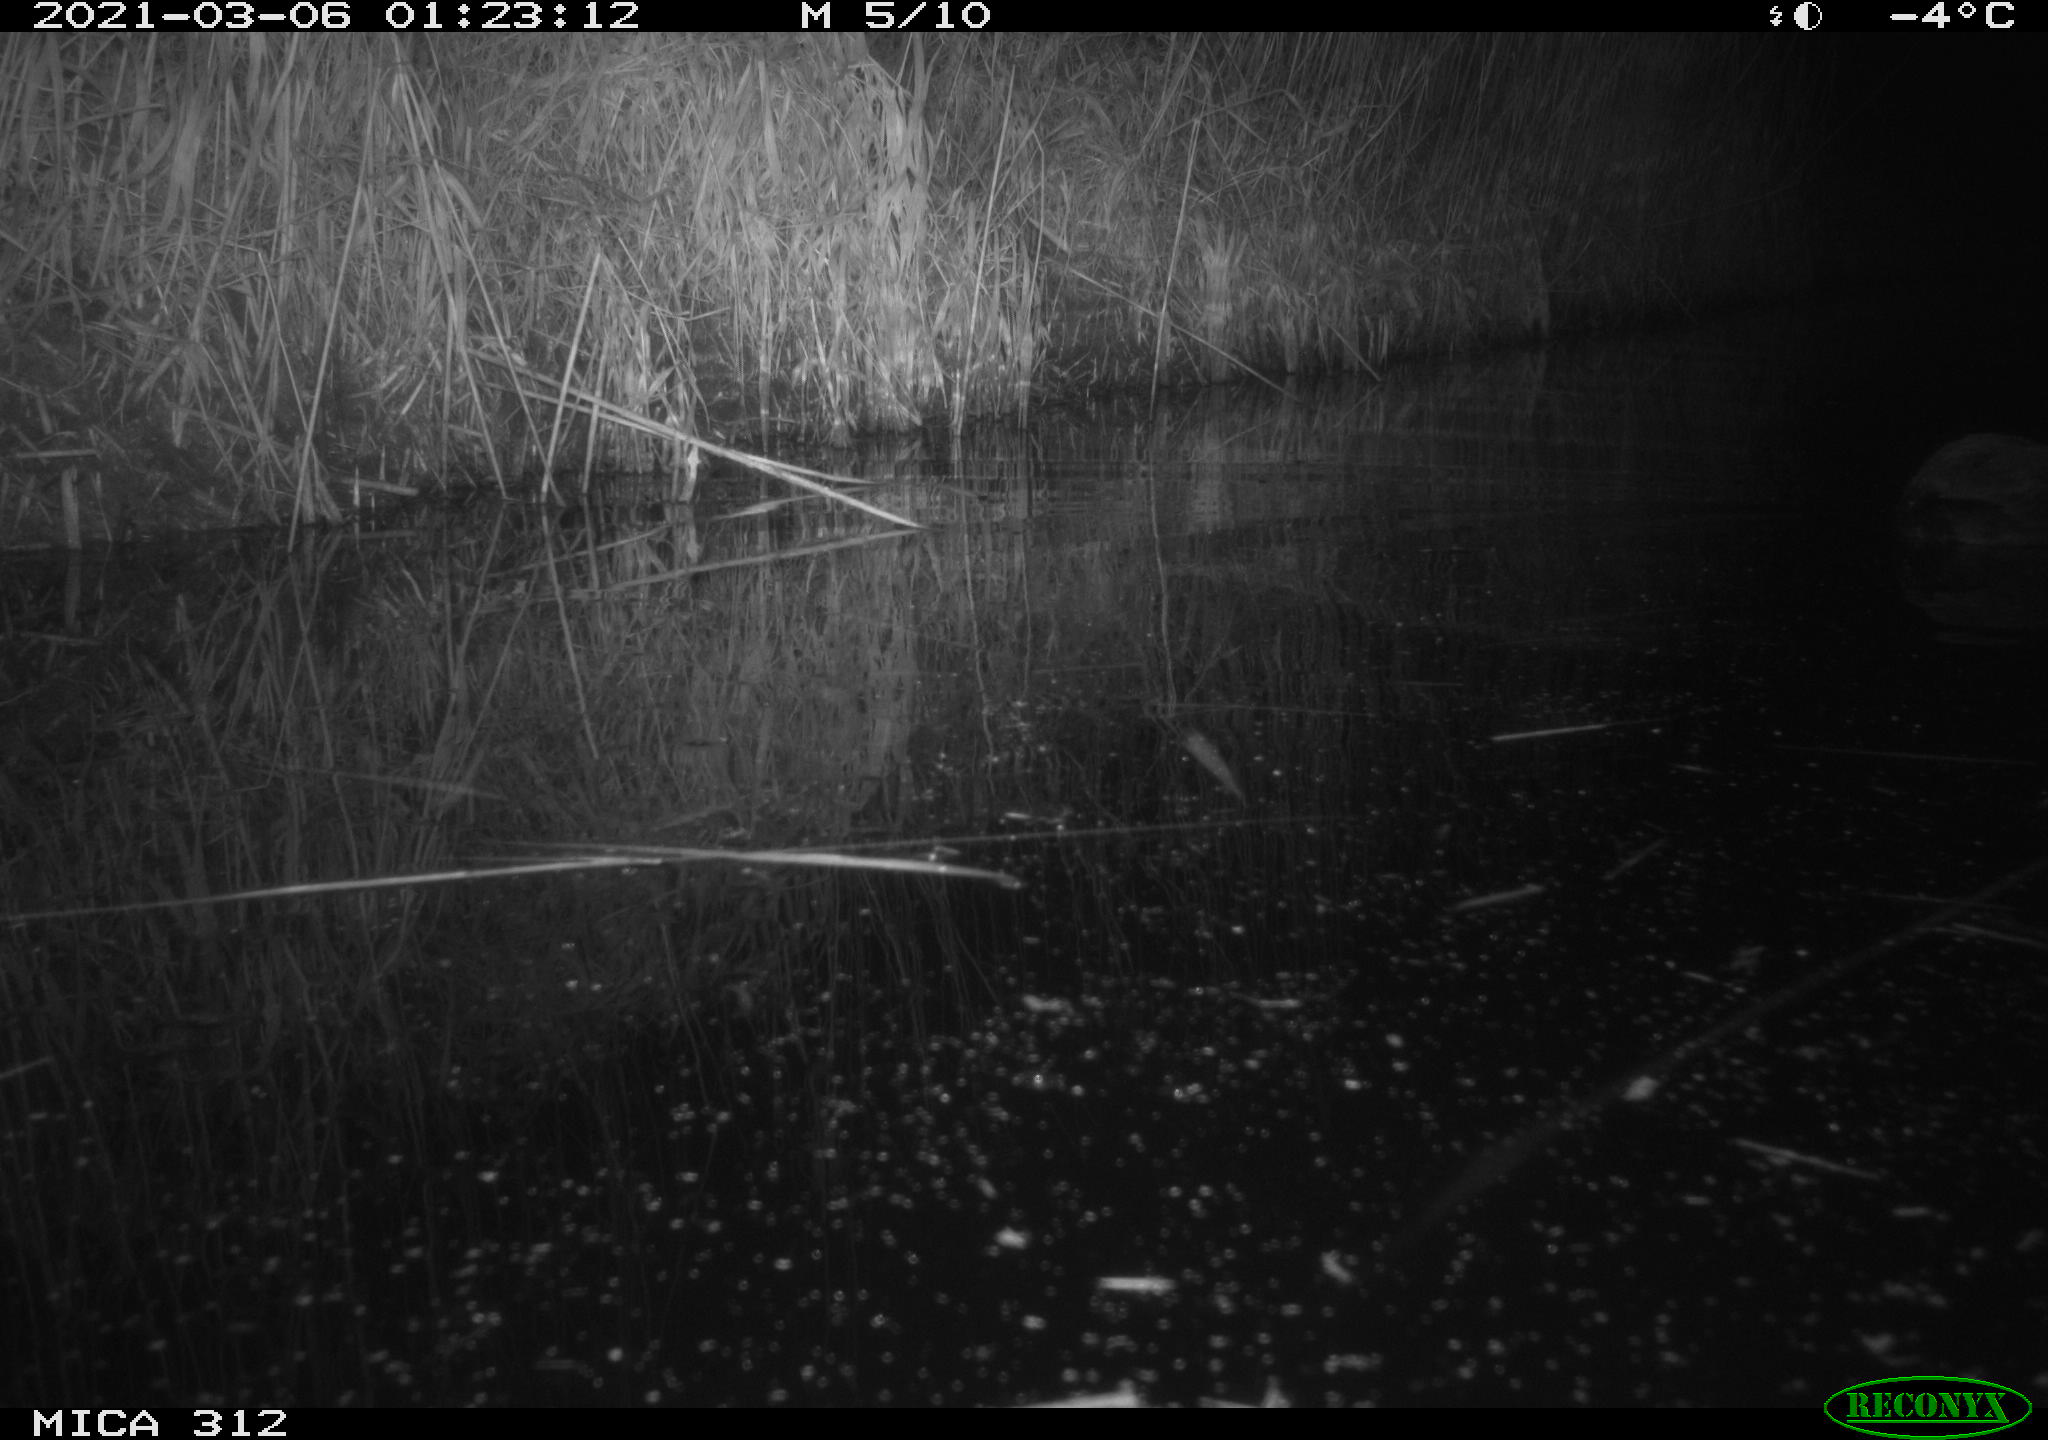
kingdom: Animalia
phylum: Chordata
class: Aves
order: Gruiformes
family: Rallidae
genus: Fulica
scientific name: Fulica atra
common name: Eurasian coot
